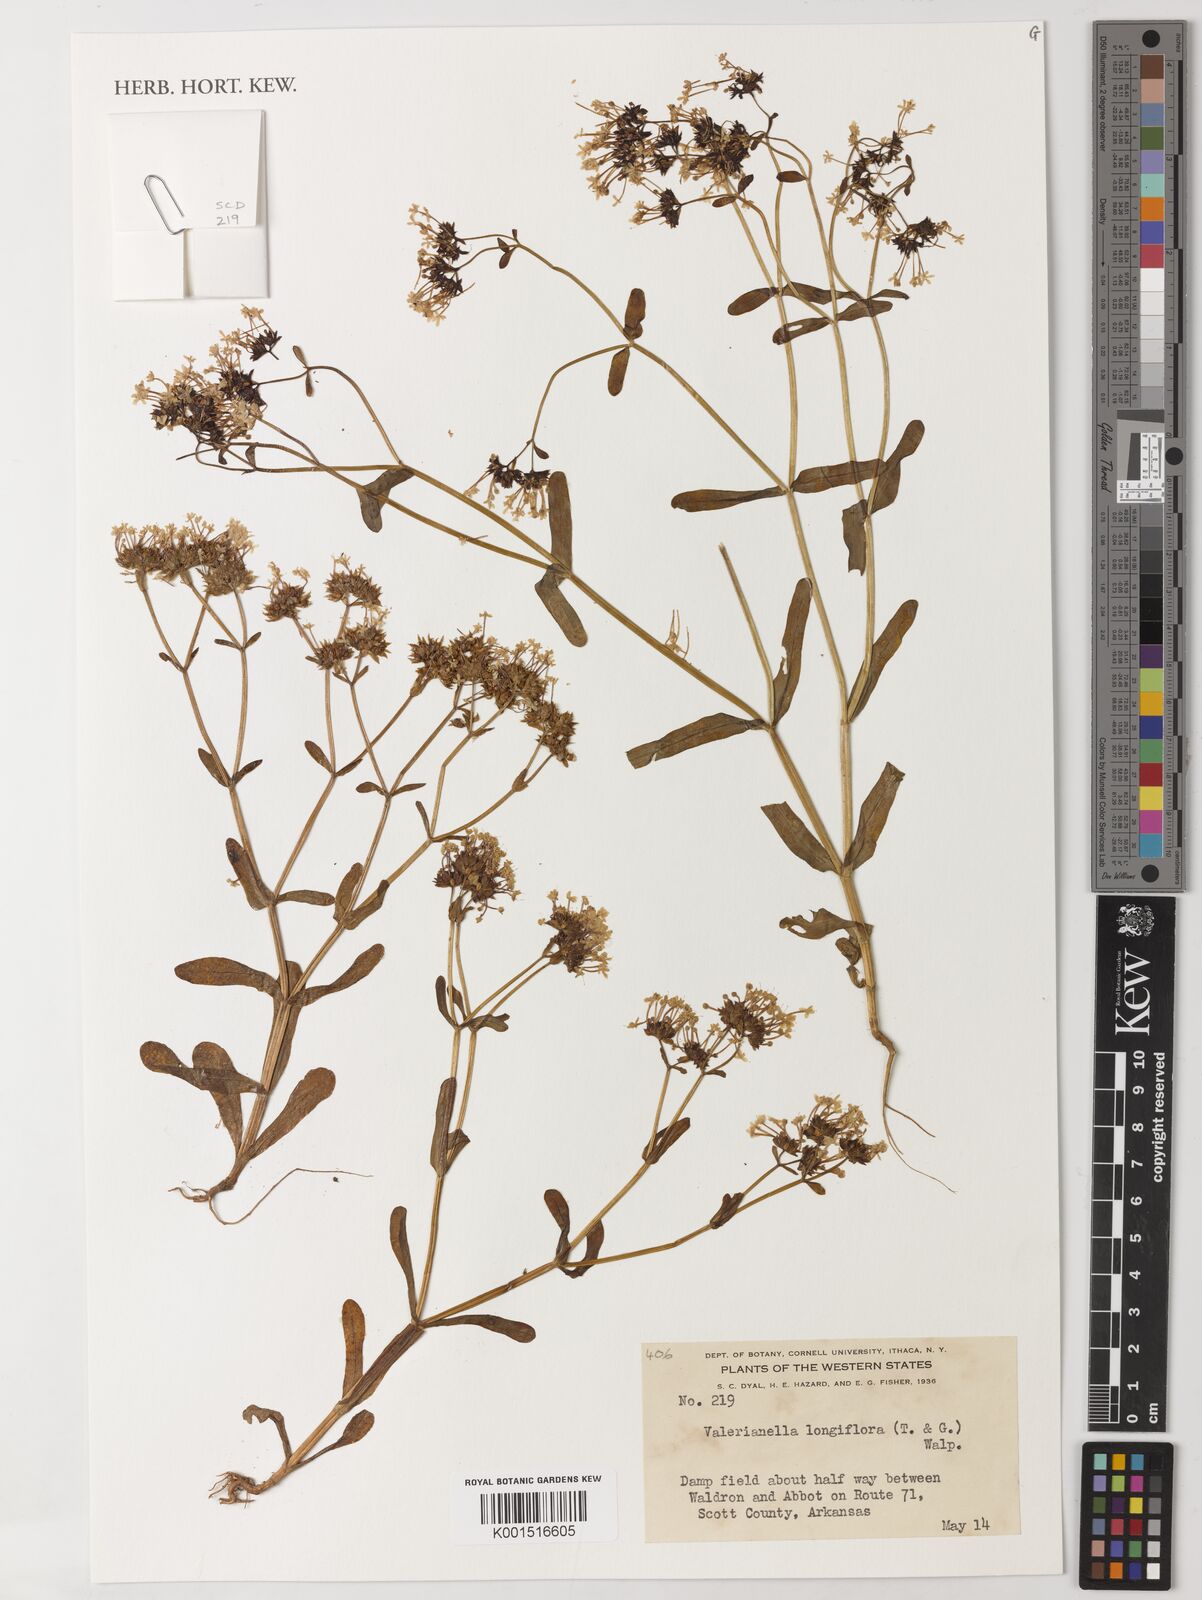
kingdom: Plantae
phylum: Tracheophyta
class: Magnoliopsida
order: Dipsacales
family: Caprifoliaceae
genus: Valeriana
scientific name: Valeriana
